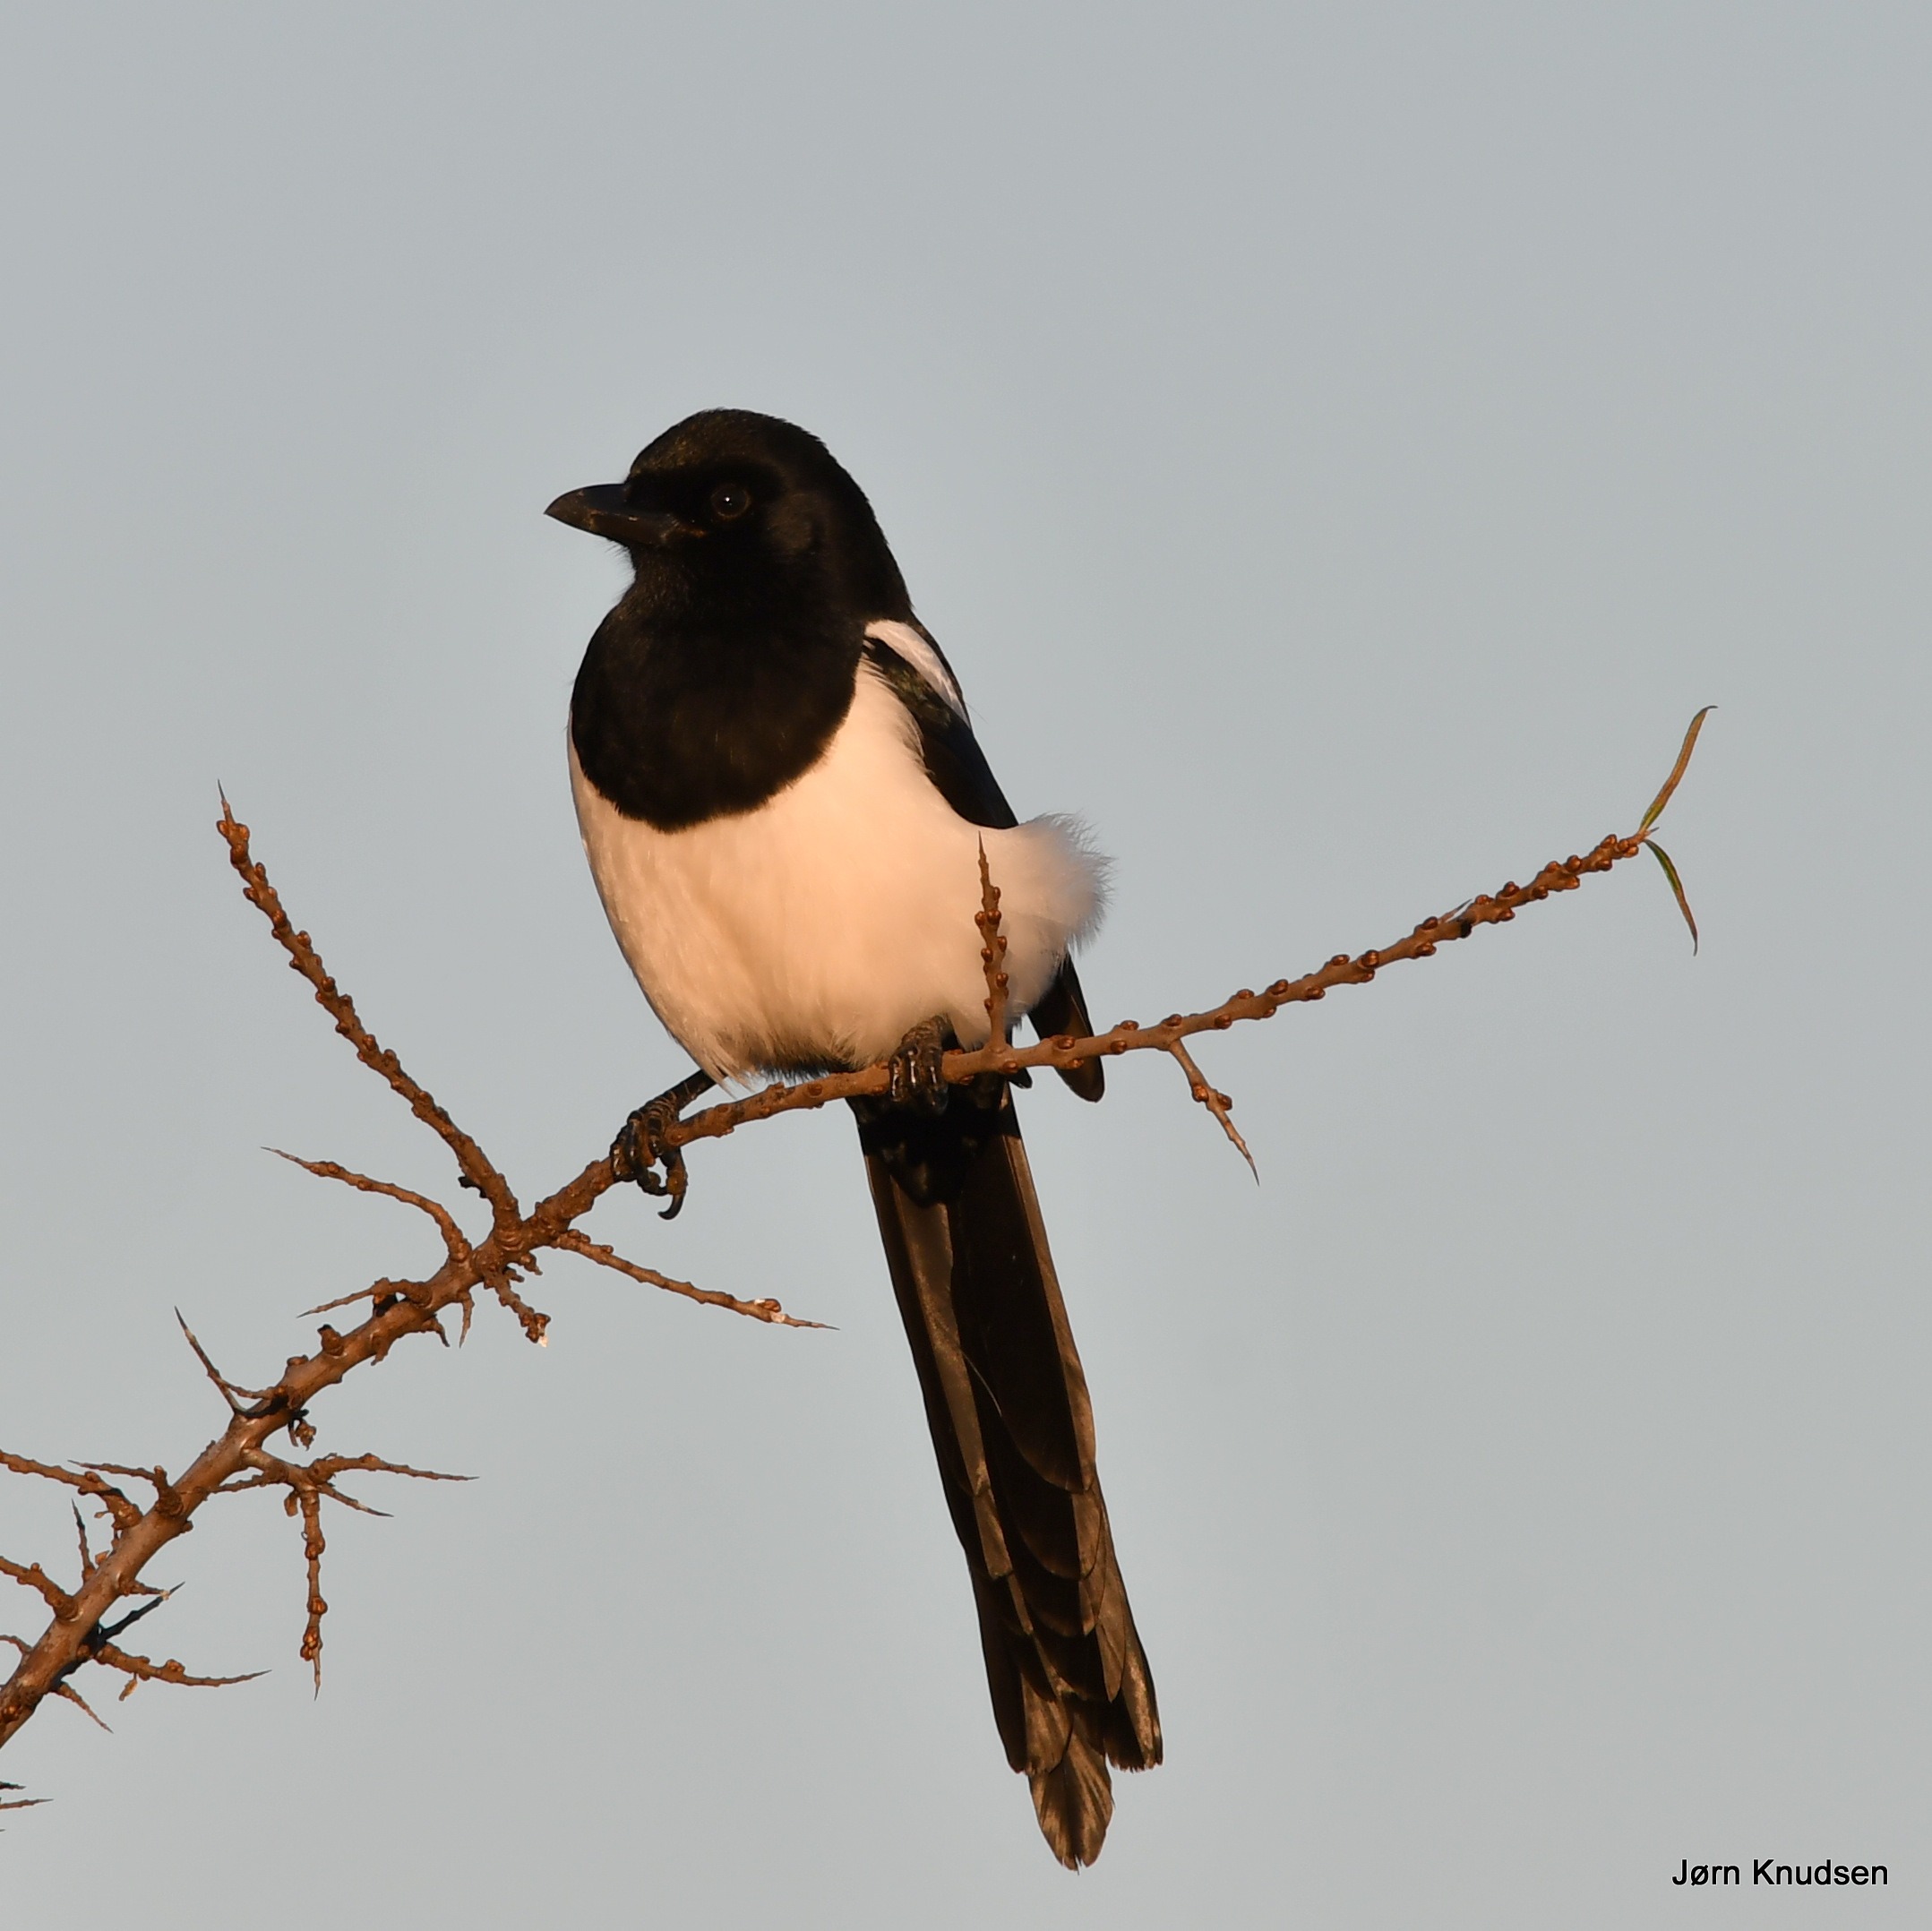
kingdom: Animalia
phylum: Chordata
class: Aves
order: Passeriformes
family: Corvidae
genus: Pica
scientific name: Pica pica
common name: Husskade
